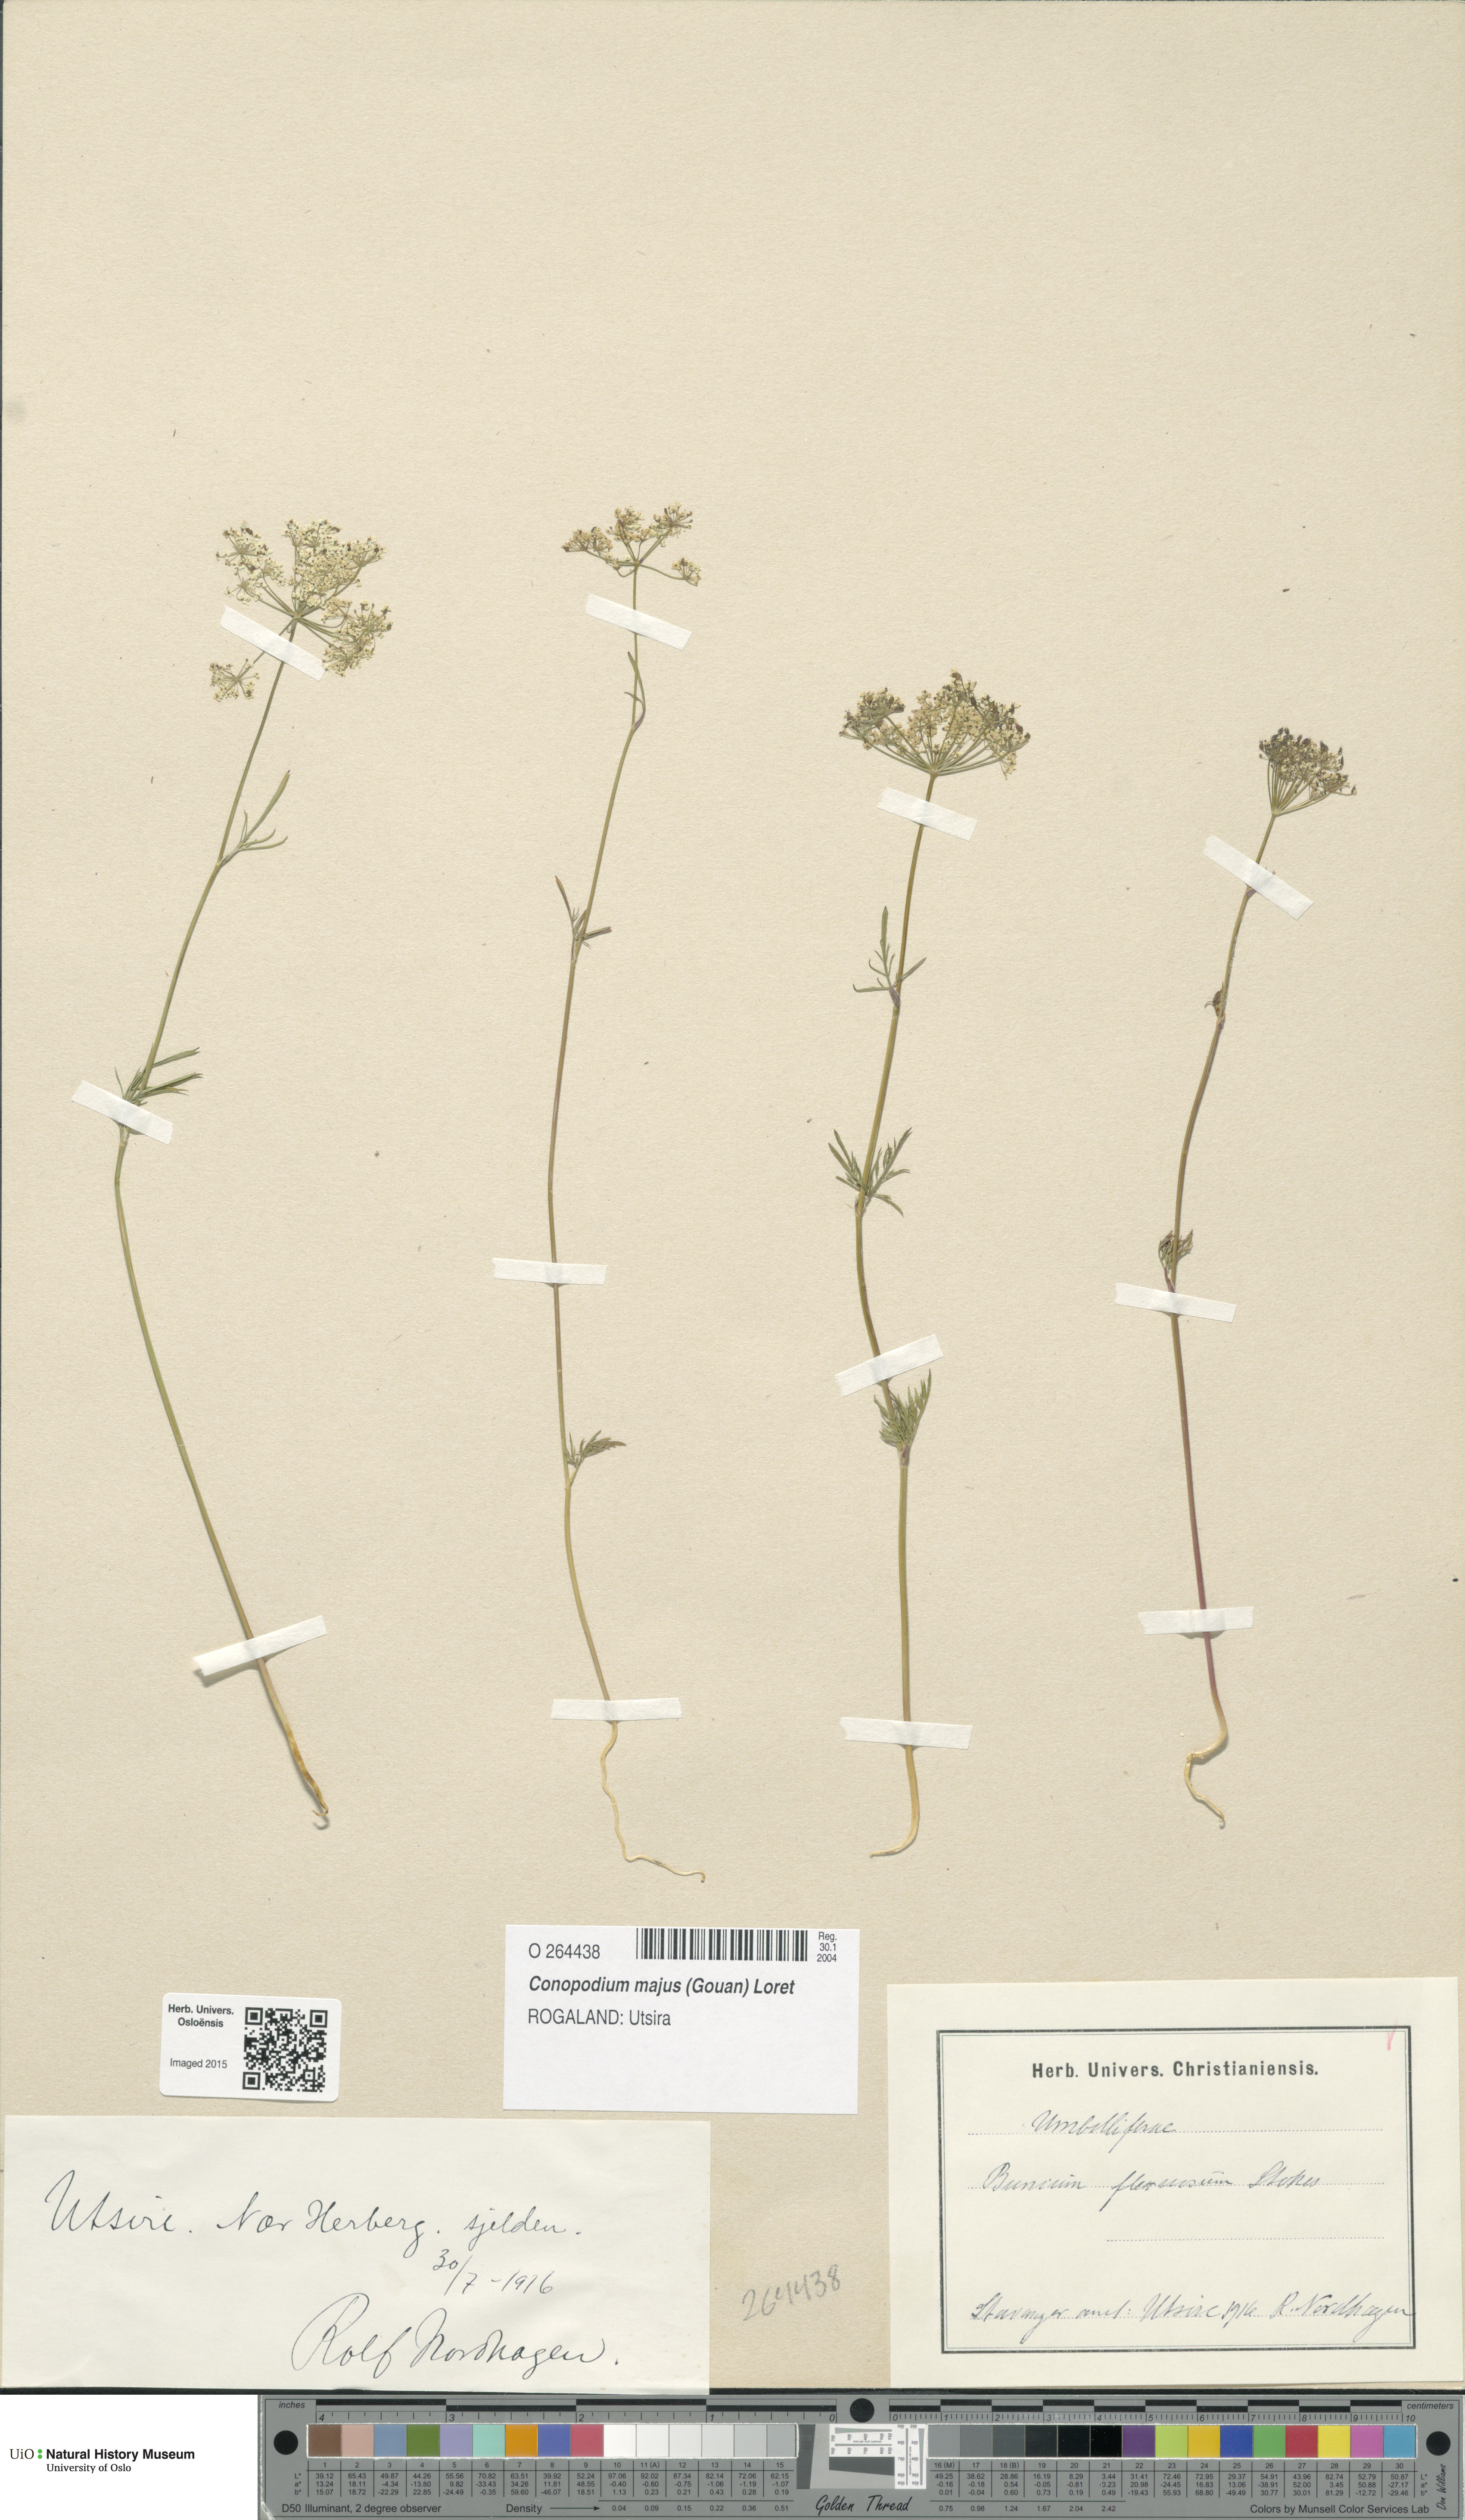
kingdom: Plantae
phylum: Tracheophyta
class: Magnoliopsida
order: Apiales
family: Apiaceae
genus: Conopodium
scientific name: Conopodium majus
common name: Pignut
